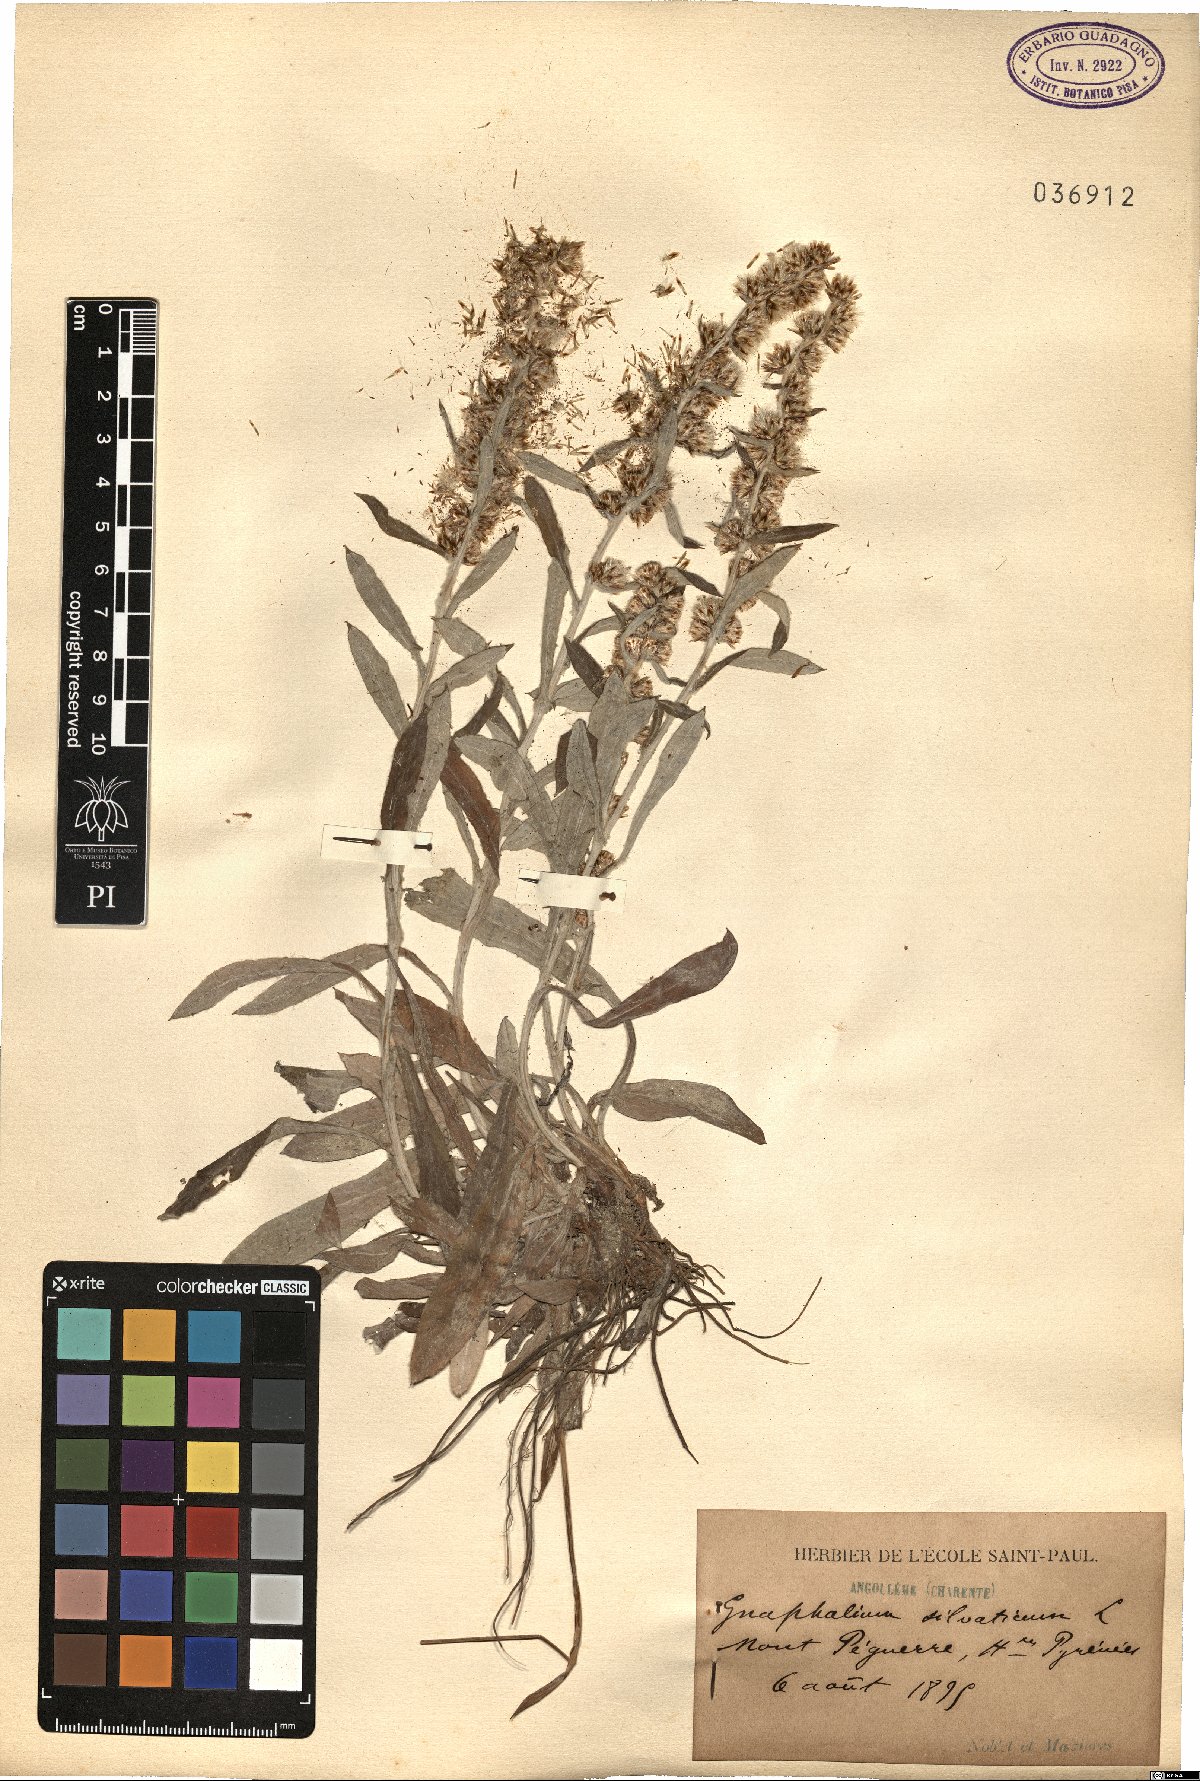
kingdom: Plantae
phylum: Tracheophyta
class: Magnoliopsida
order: Asterales
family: Asteraceae
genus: Omalotheca
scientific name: Omalotheca sylvatica
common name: Heath cudweed
